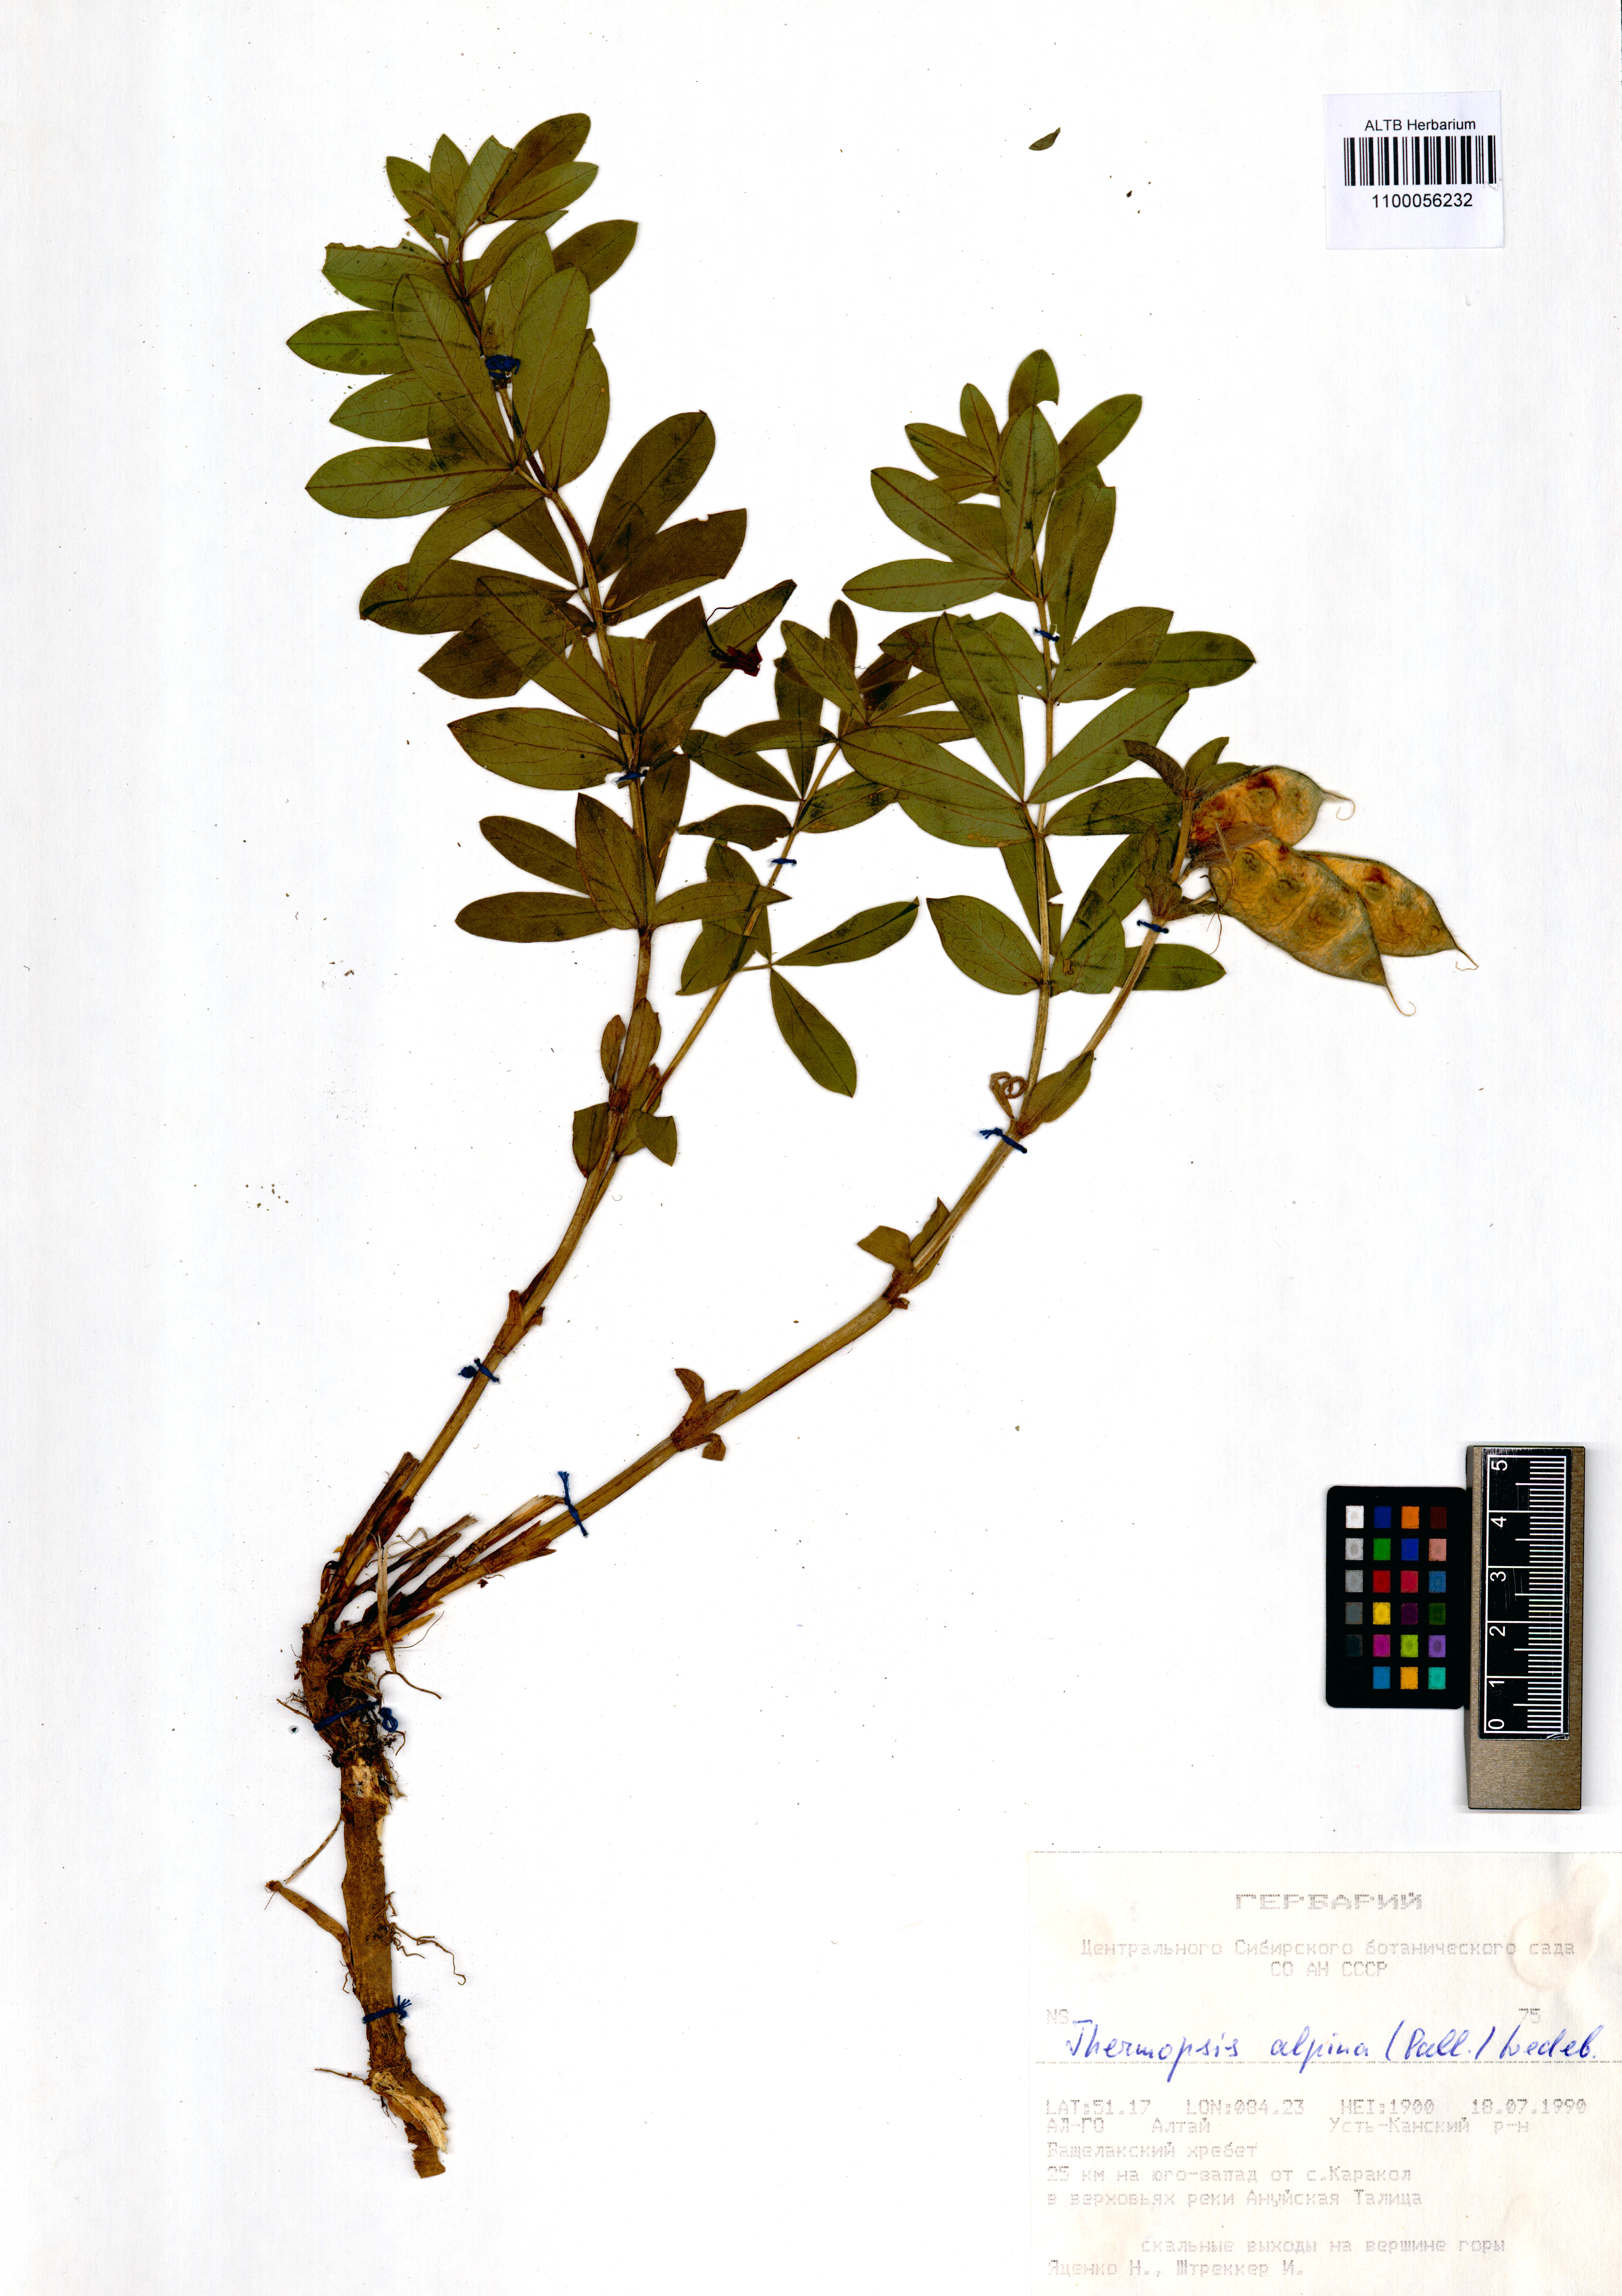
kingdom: Plantae
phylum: Tracheophyta
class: Magnoliopsida
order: Fabales
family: Fabaceae
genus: Thermopsis
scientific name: Thermopsis alpina
